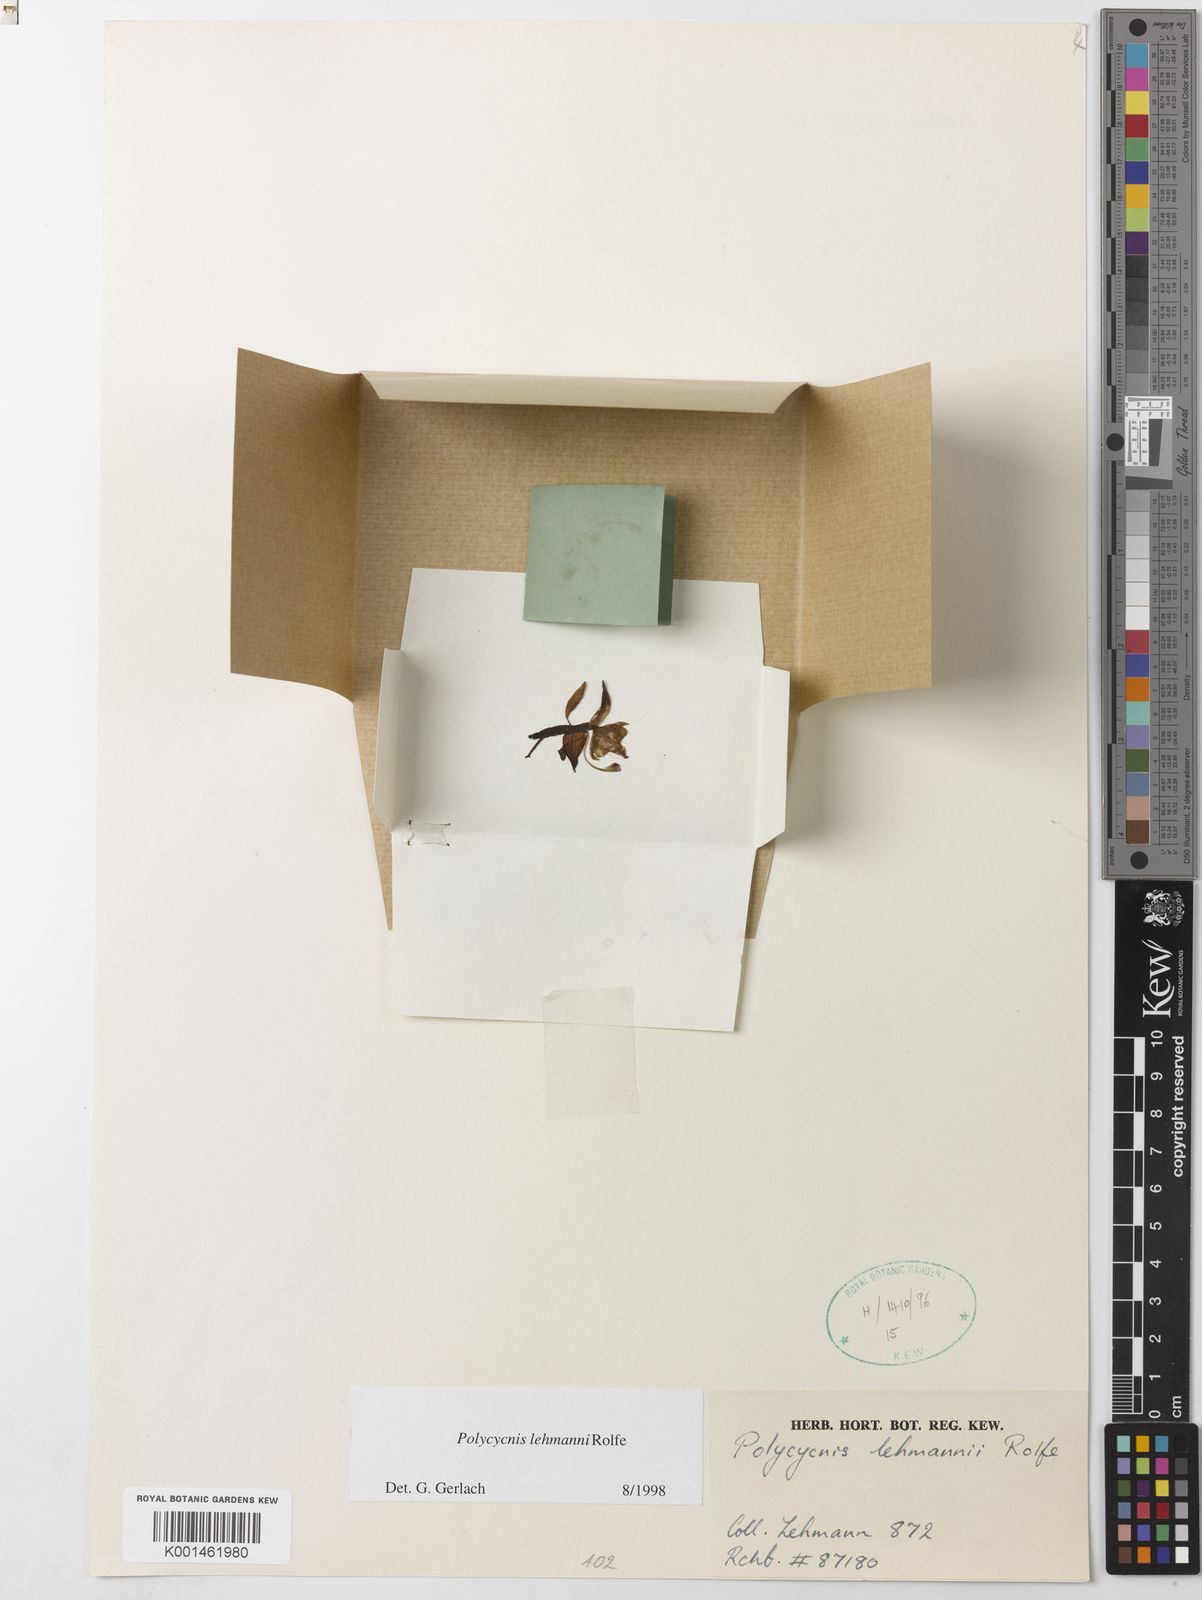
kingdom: Plantae
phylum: Tracheophyta
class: Liliopsida
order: Asparagales
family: Orchidaceae
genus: Polycycnis
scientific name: Polycycnis lehmannii
